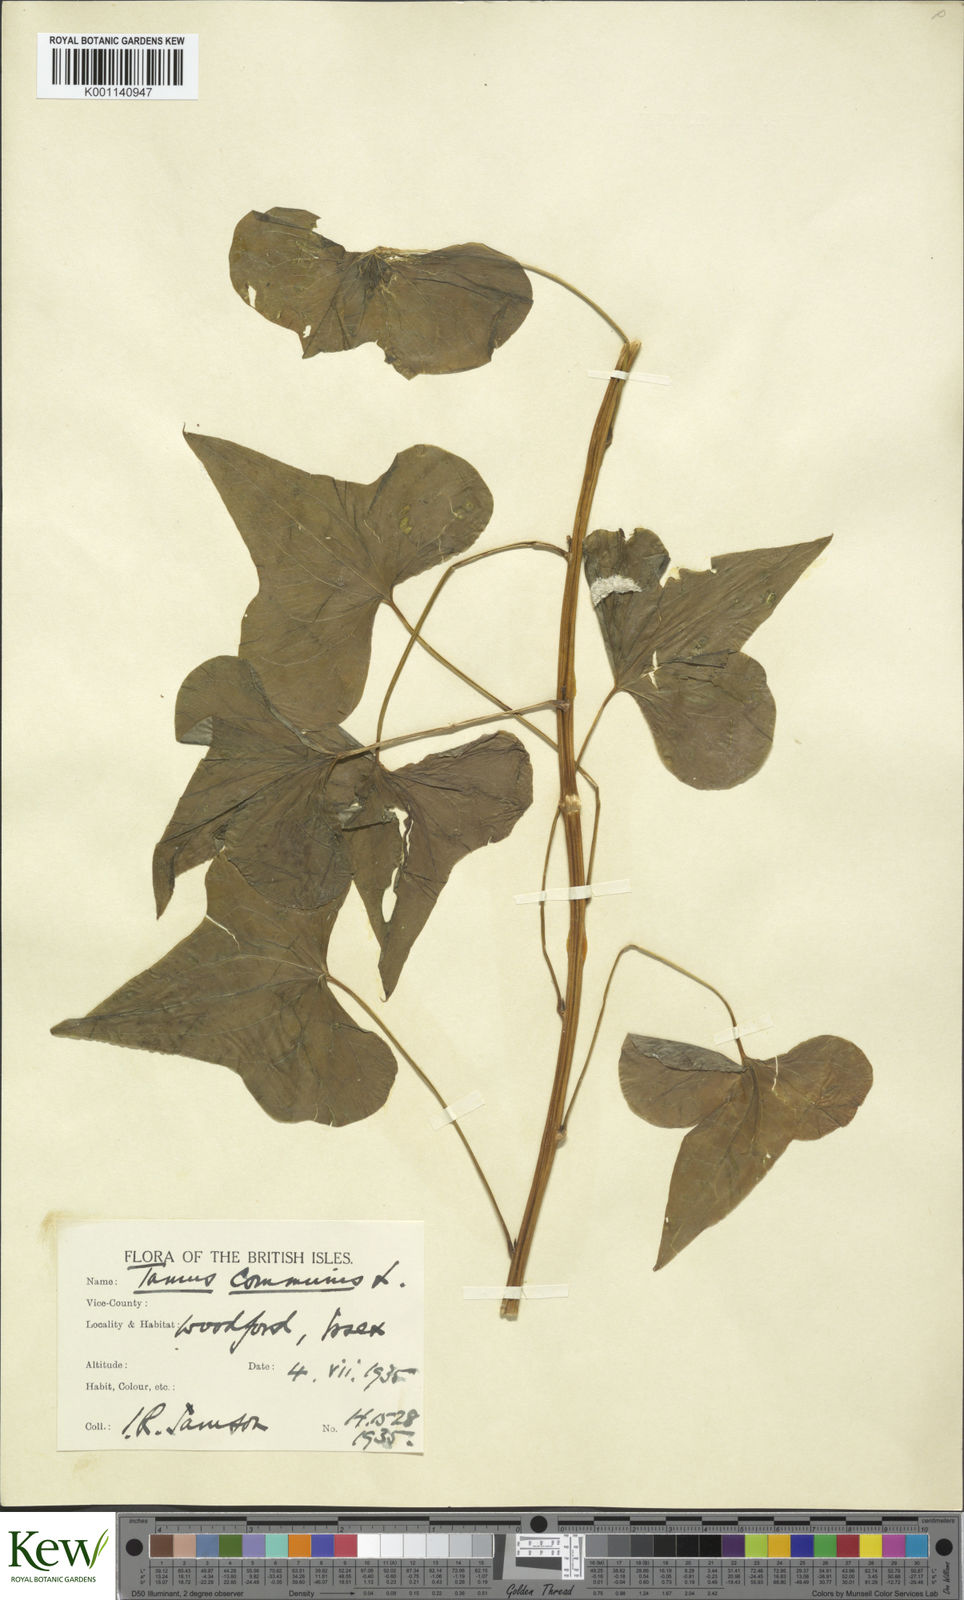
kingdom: Plantae
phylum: Tracheophyta
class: Liliopsida
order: Dioscoreales
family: Dioscoreaceae
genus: Dioscorea
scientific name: Dioscorea communis
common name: Black-bindweed
